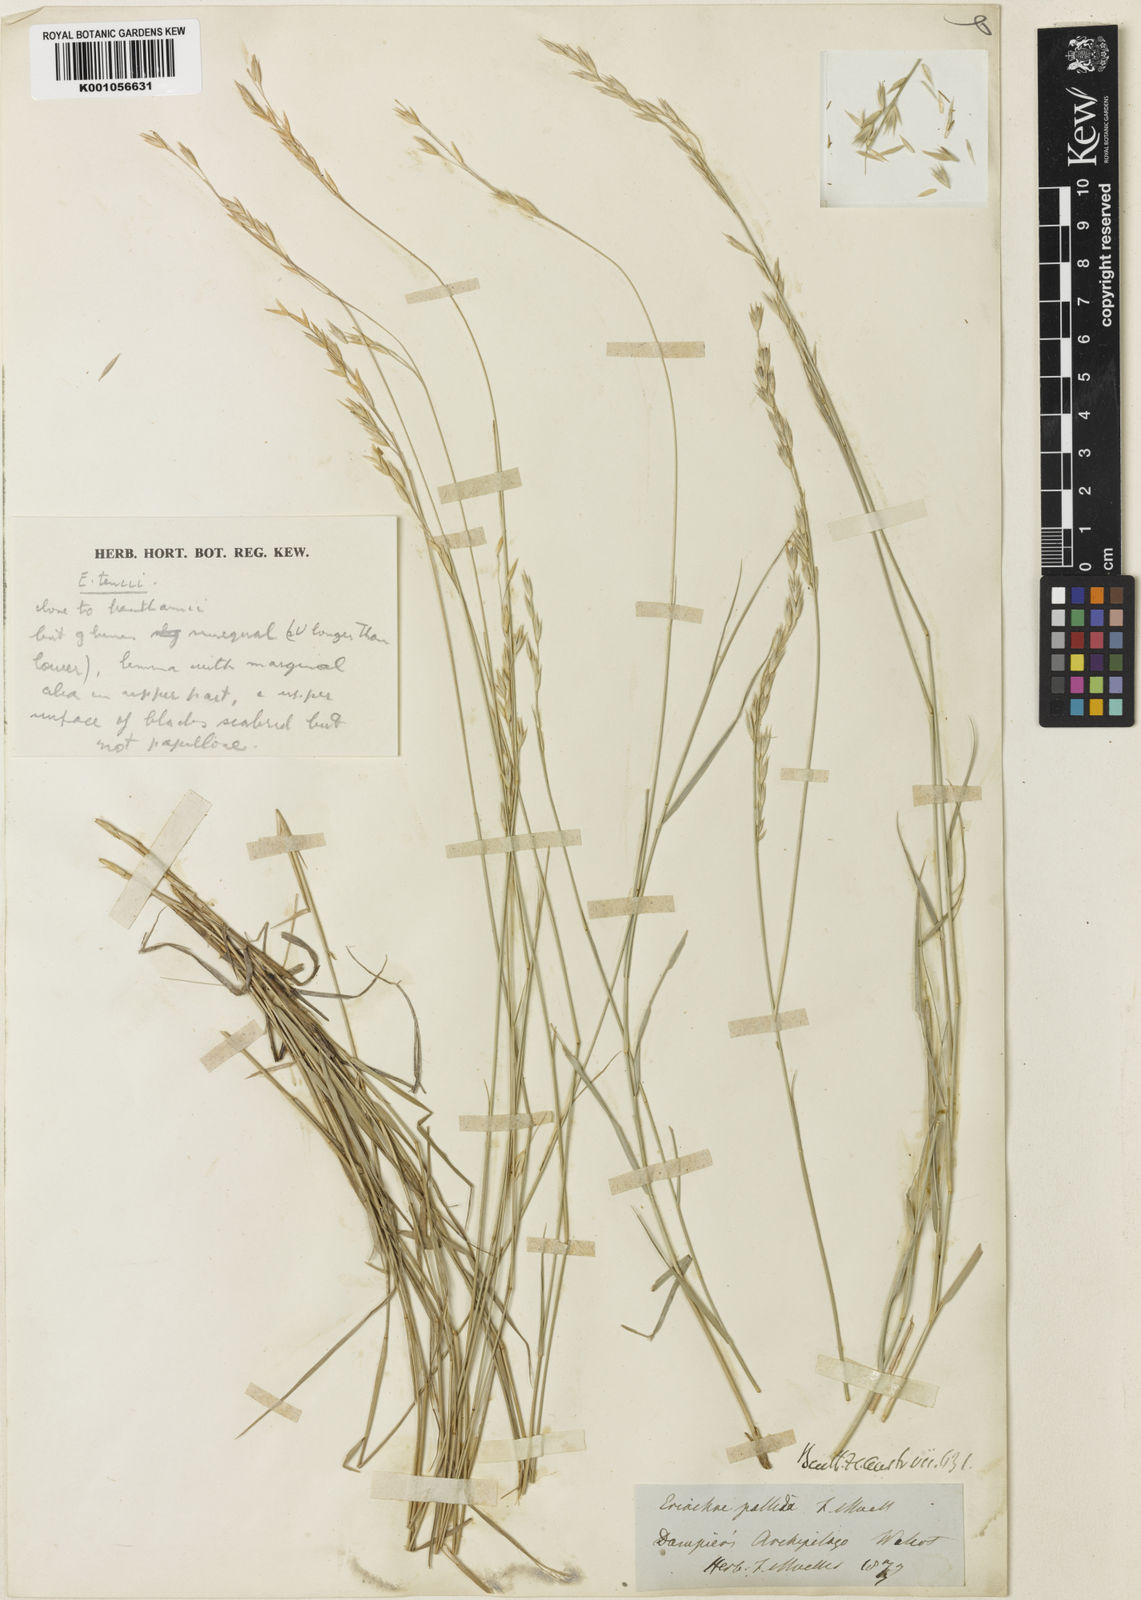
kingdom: Plantae
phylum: Tracheophyta
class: Liliopsida
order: Poales
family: Poaceae
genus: Eriachne
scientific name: Eriachne tenuiculmis
